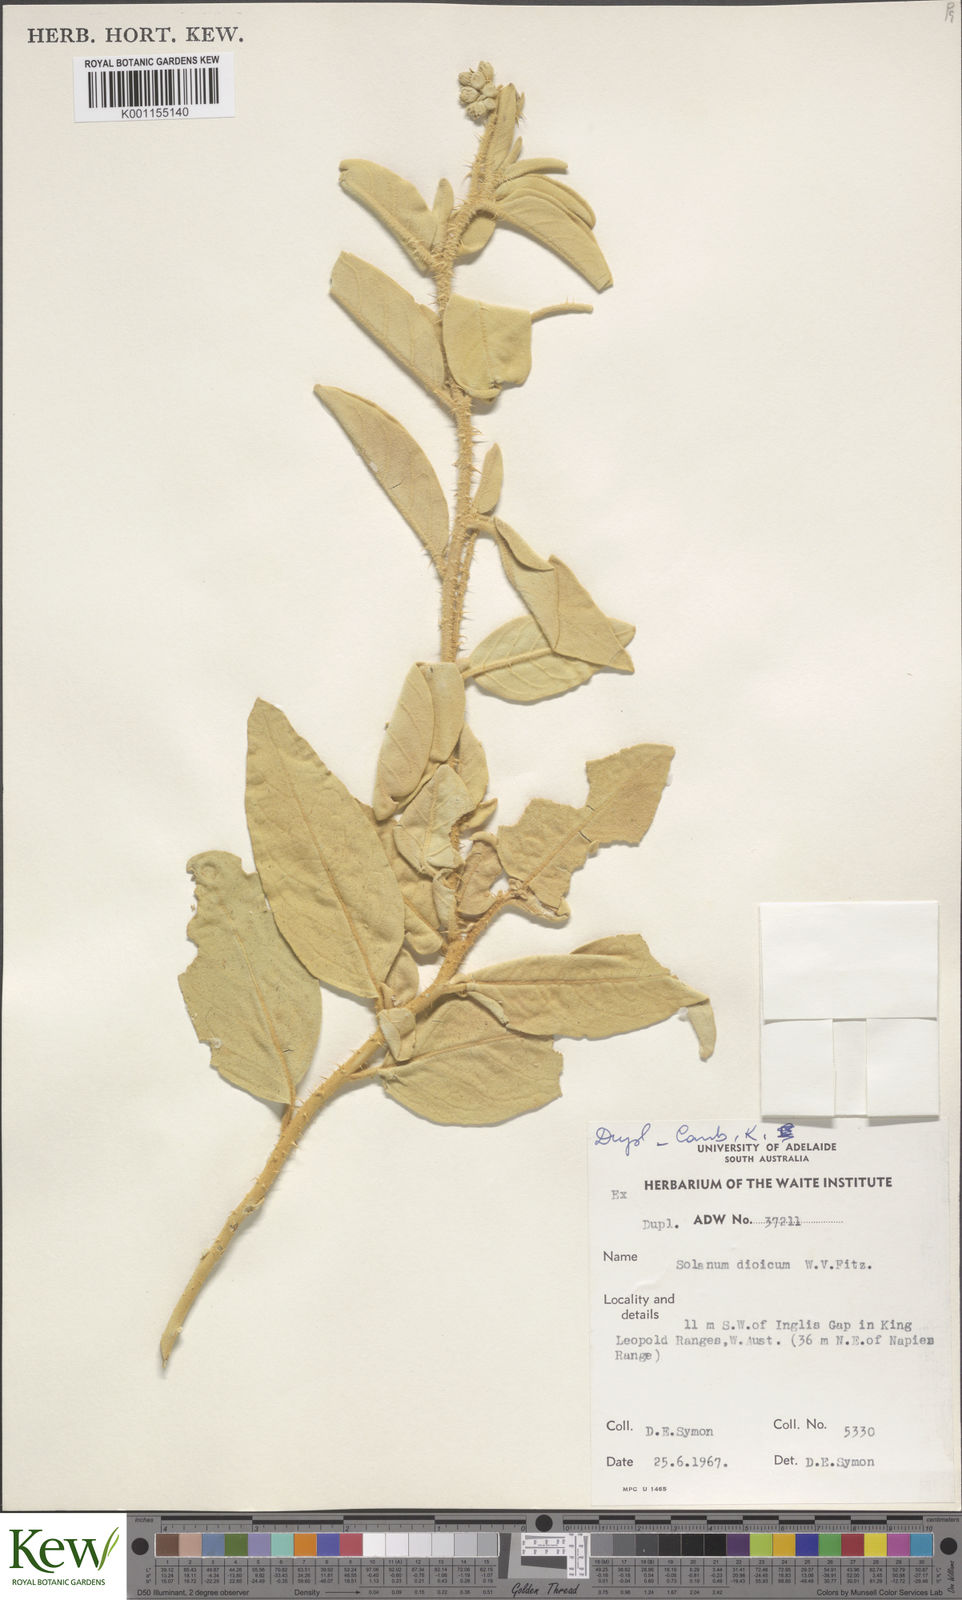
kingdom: Plantae
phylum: Tracheophyta
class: Magnoliopsida
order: Solanales
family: Solanaceae
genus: Solanum
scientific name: Solanum dioicum
